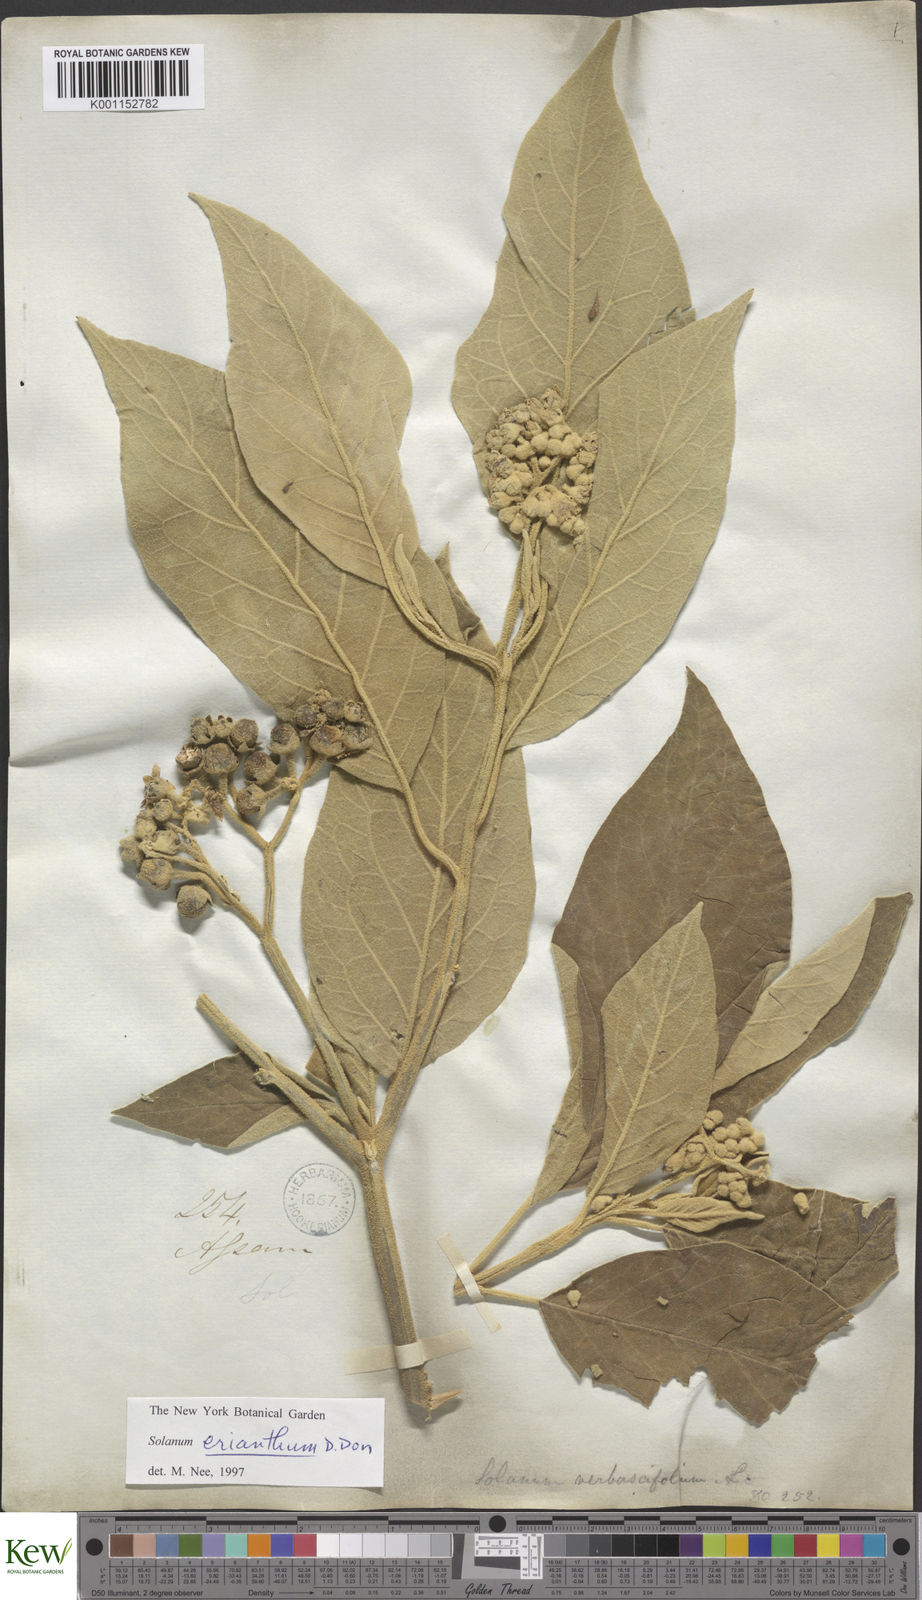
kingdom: Plantae
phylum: Tracheophyta
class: Magnoliopsida
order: Solanales
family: Solanaceae
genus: Solanum
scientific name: Solanum erianthum
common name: Tobacco-tree
